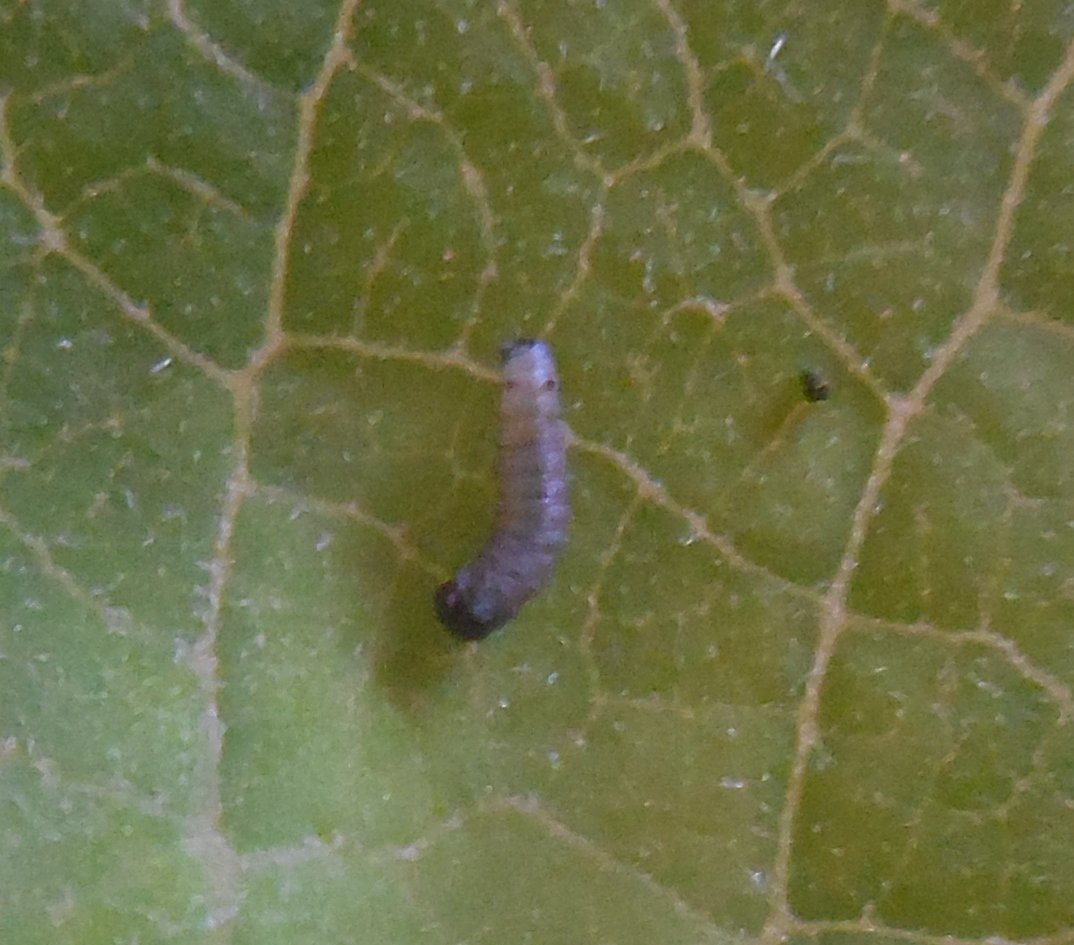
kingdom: Animalia
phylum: Arthropoda
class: Insecta
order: Lepidoptera
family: Nymphalidae
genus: Danaus
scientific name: Danaus plexippus
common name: Monarch
